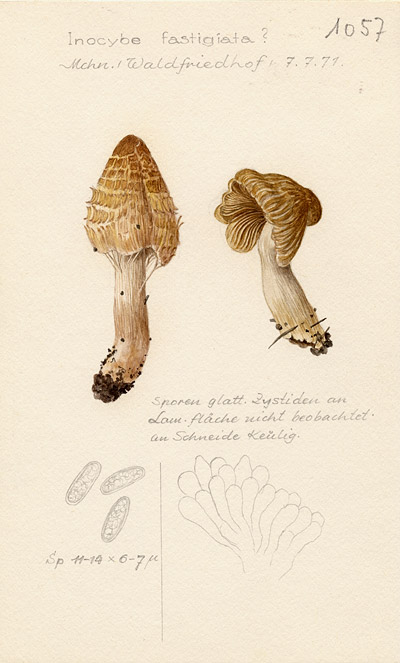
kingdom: Fungi
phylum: Basidiomycota
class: Agaricomycetes
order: Agaricales
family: Inocybaceae
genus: Pseudosperma
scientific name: Pseudosperma rimosum
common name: Split fibrecap
